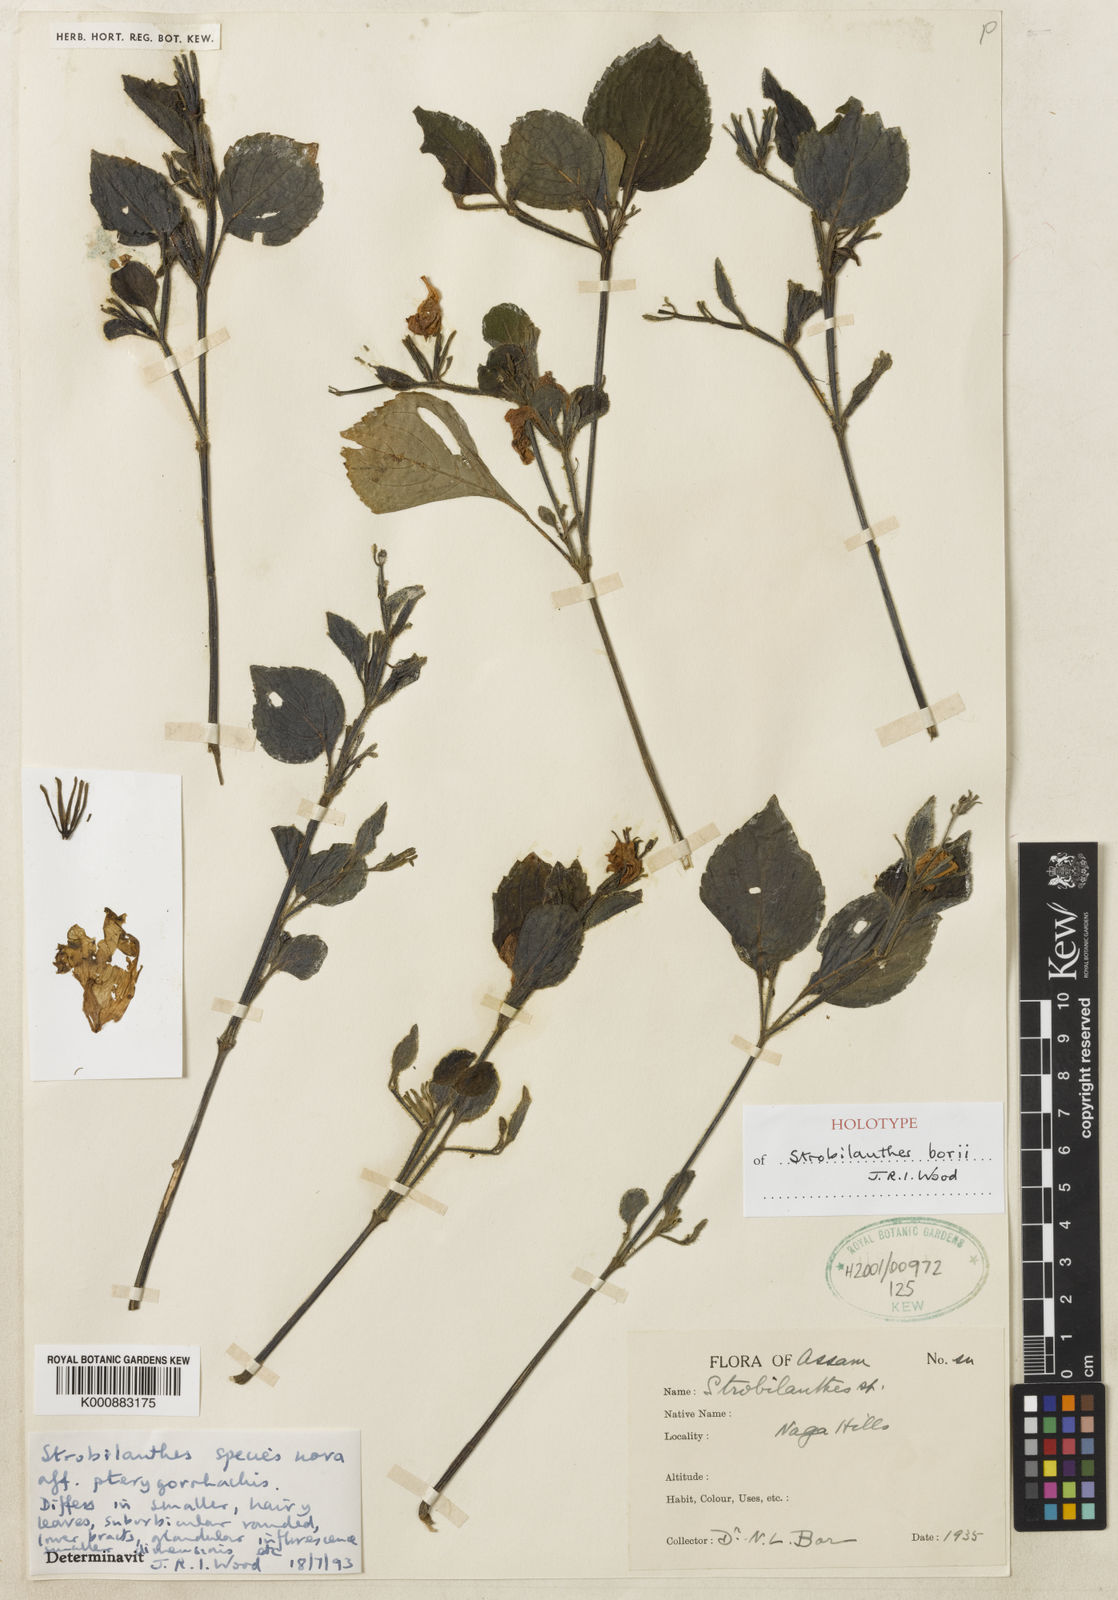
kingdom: Plantae
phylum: Tracheophyta
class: Magnoliopsida
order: Lamiales
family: Acanthaceae
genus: Strobilanthes
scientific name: Strobilanthes borii
